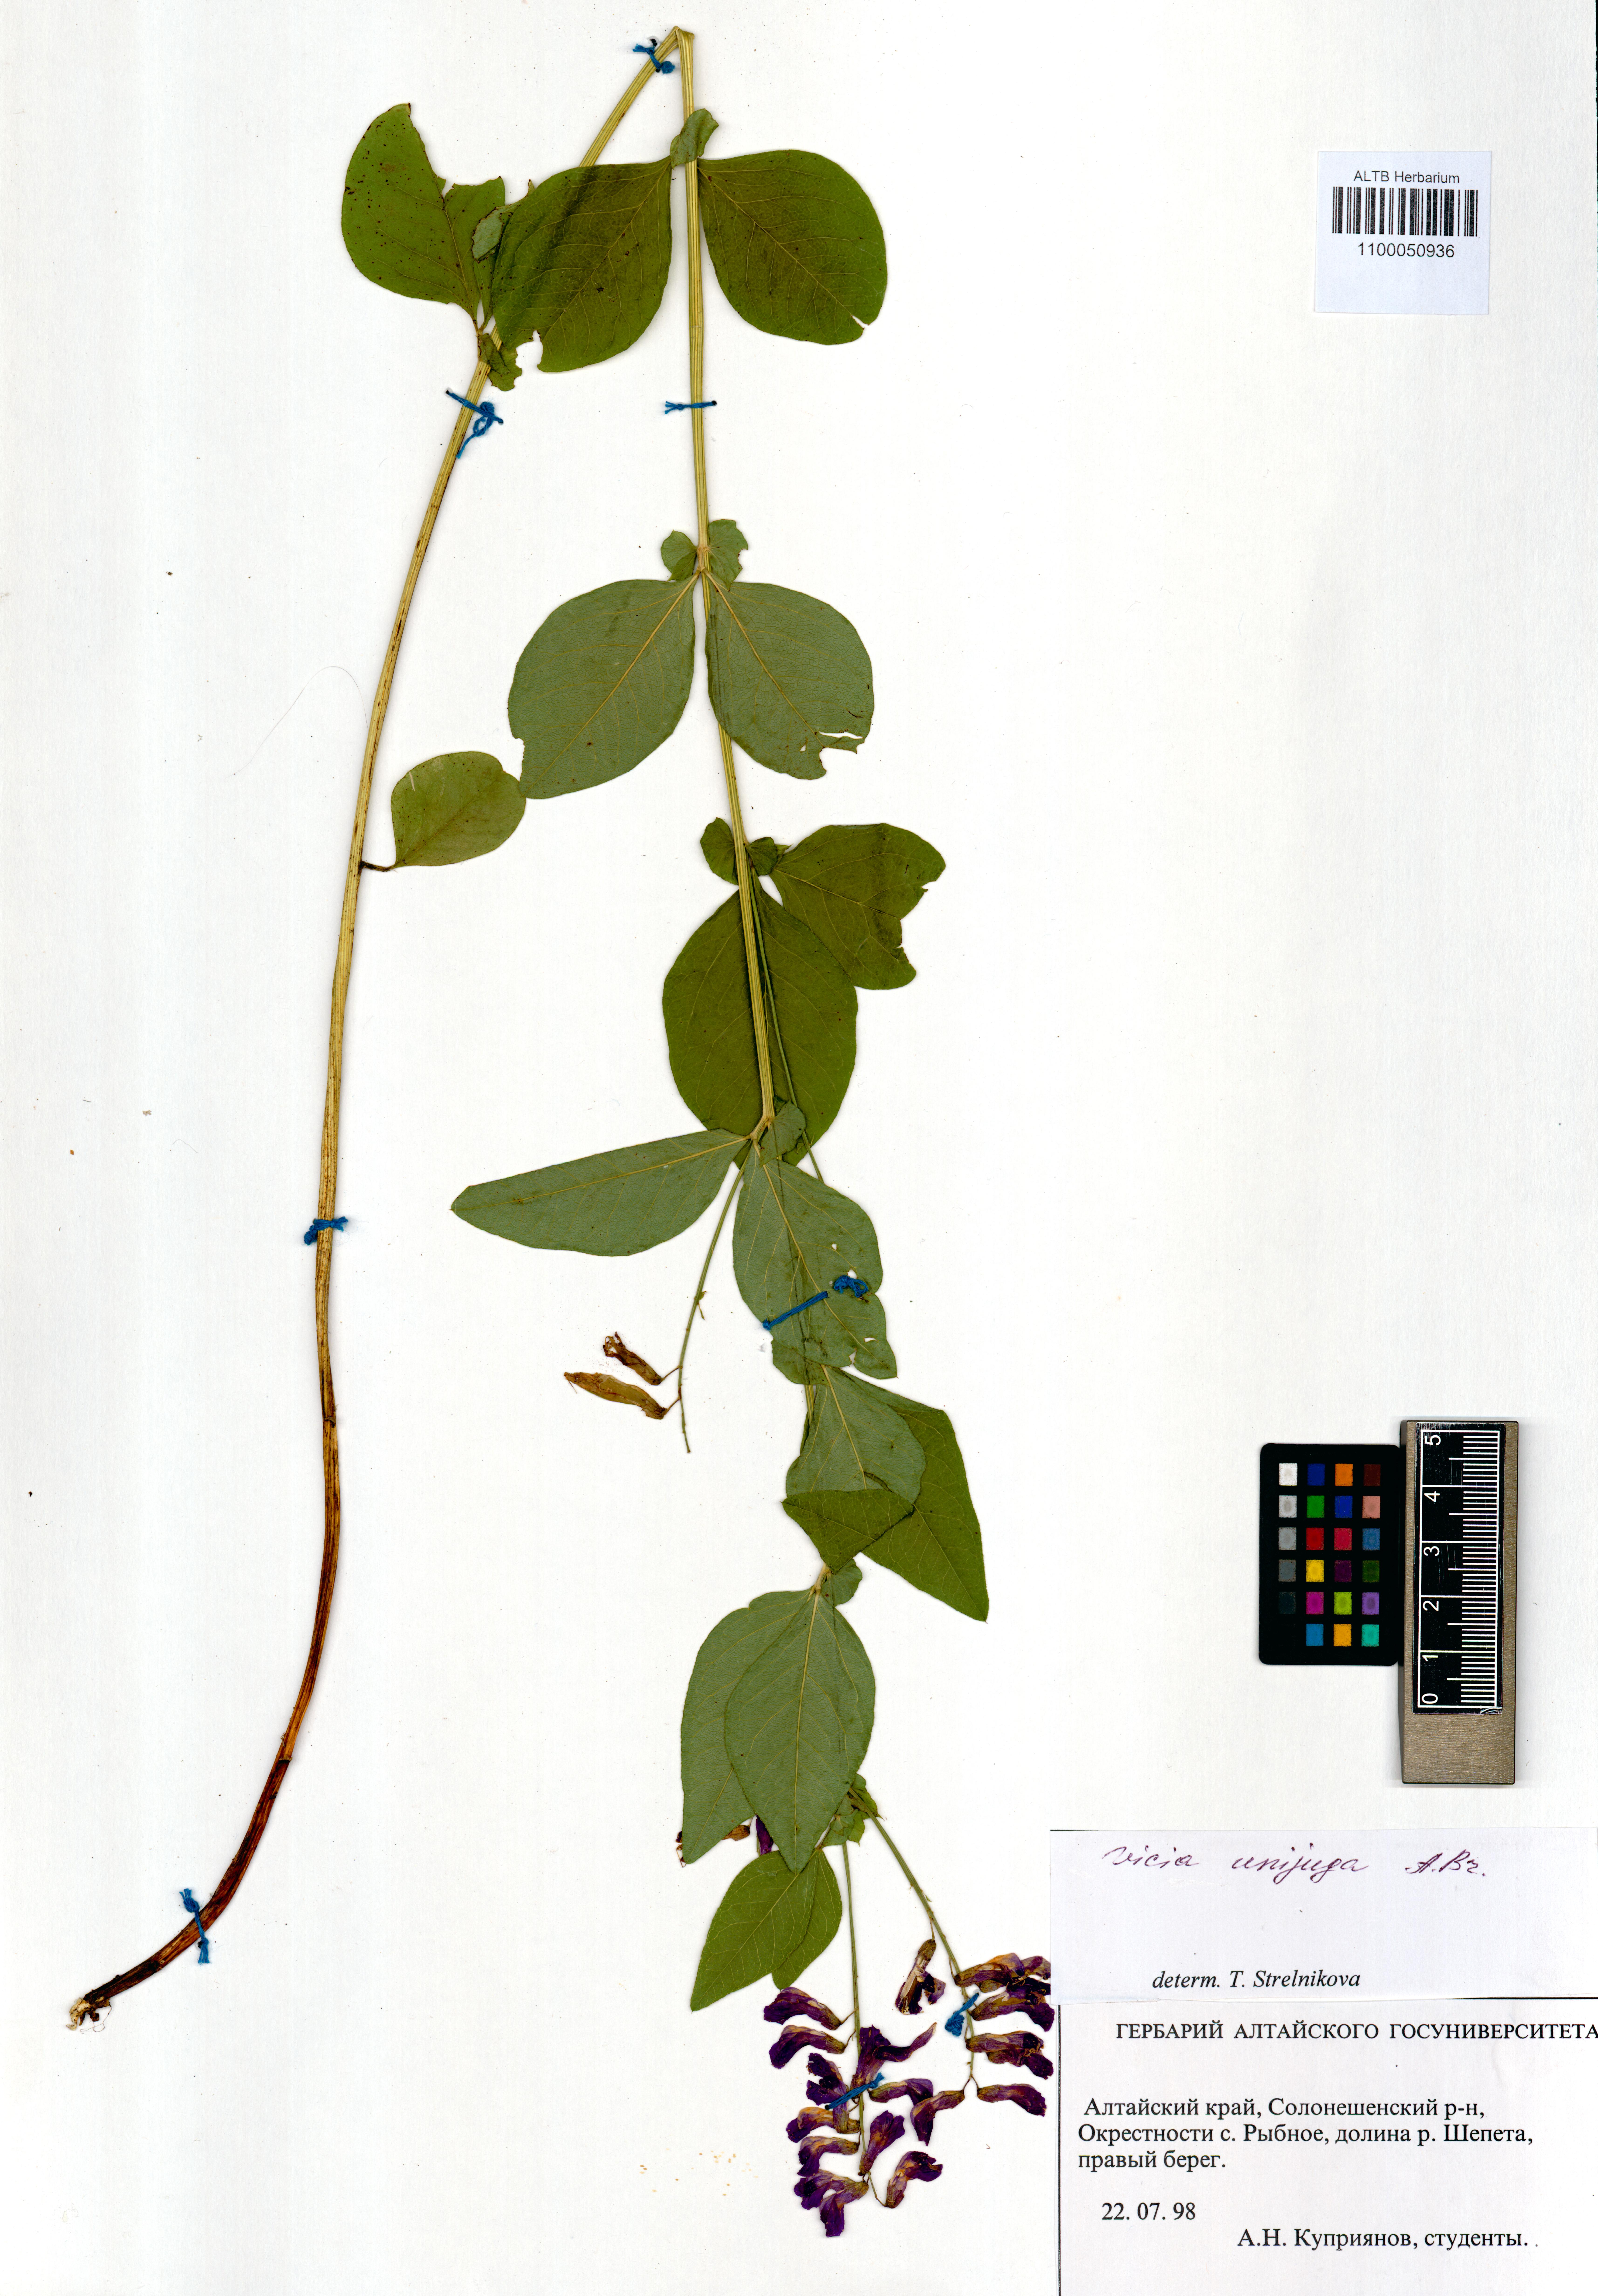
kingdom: Plantae
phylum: Tracheophyta
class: Magnoliopsida
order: Fabales
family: Fabaceae
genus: Vicia
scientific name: Vicia unijuga
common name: Two-leaf vetch
